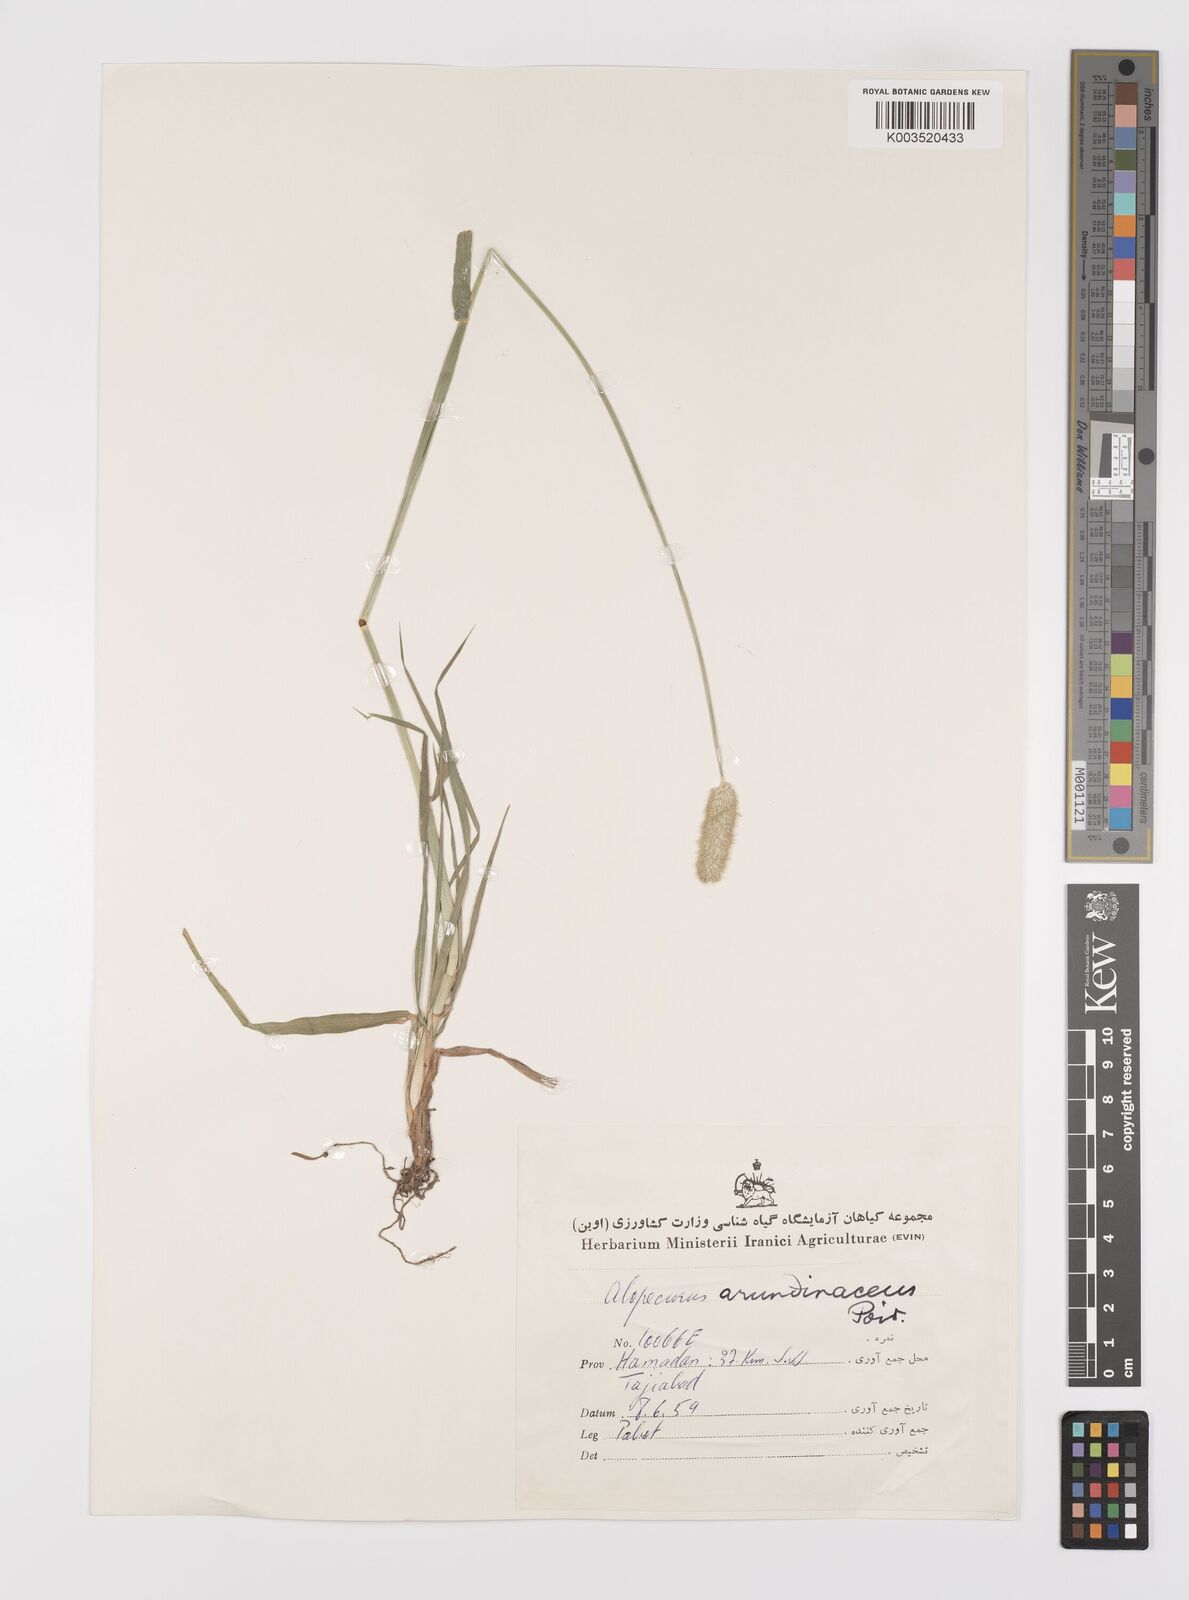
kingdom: Plantae
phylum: Tracheophyta
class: Liliopsida
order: Poales
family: Poaceae
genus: Alopecurus
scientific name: Alopecurus arundinaceus
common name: Creeping meadow foxtail
